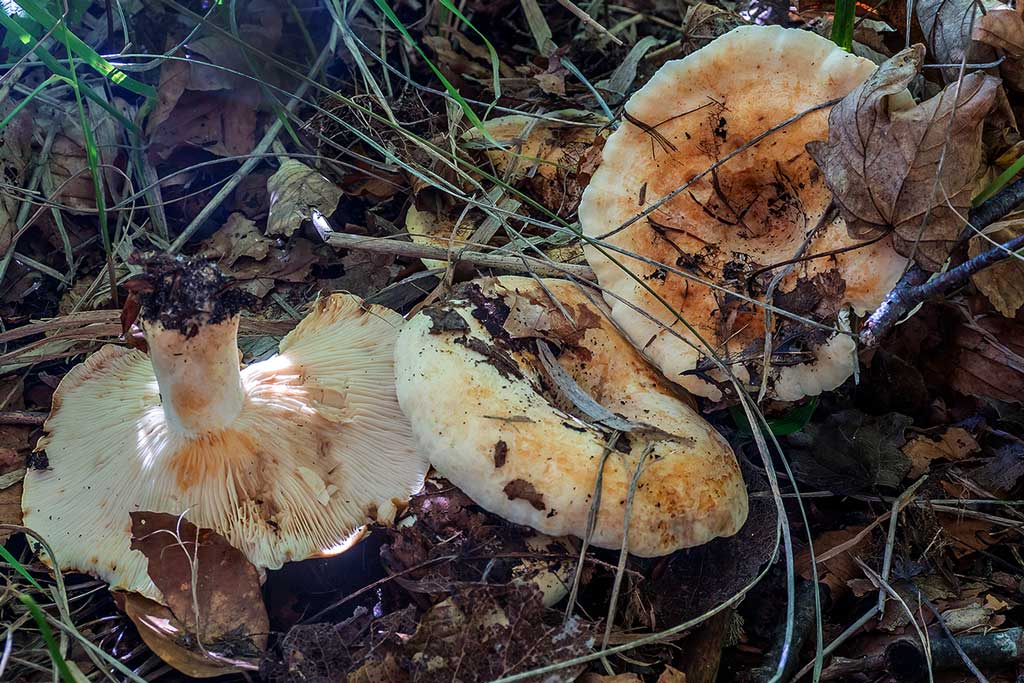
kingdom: Fungi
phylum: Basidiomycota
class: Agaricomycetes
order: Russulales
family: Russulaceae
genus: Lactarius
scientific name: Lactarius evosmus
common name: bæltet mælkehat
